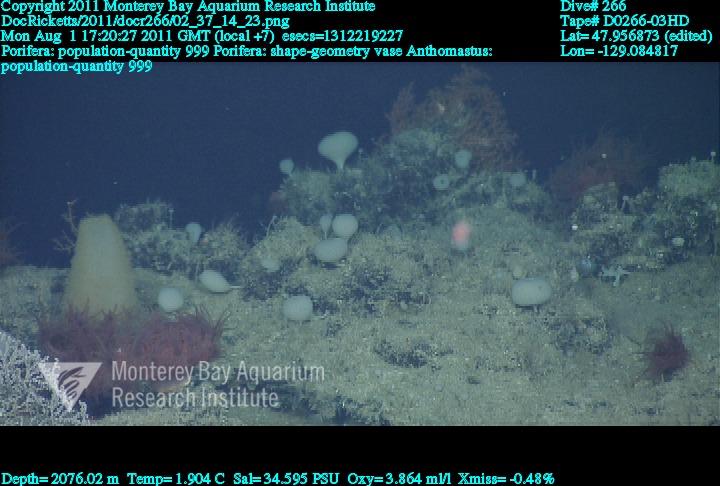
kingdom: Animalia
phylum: Porifera
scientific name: Porifera
